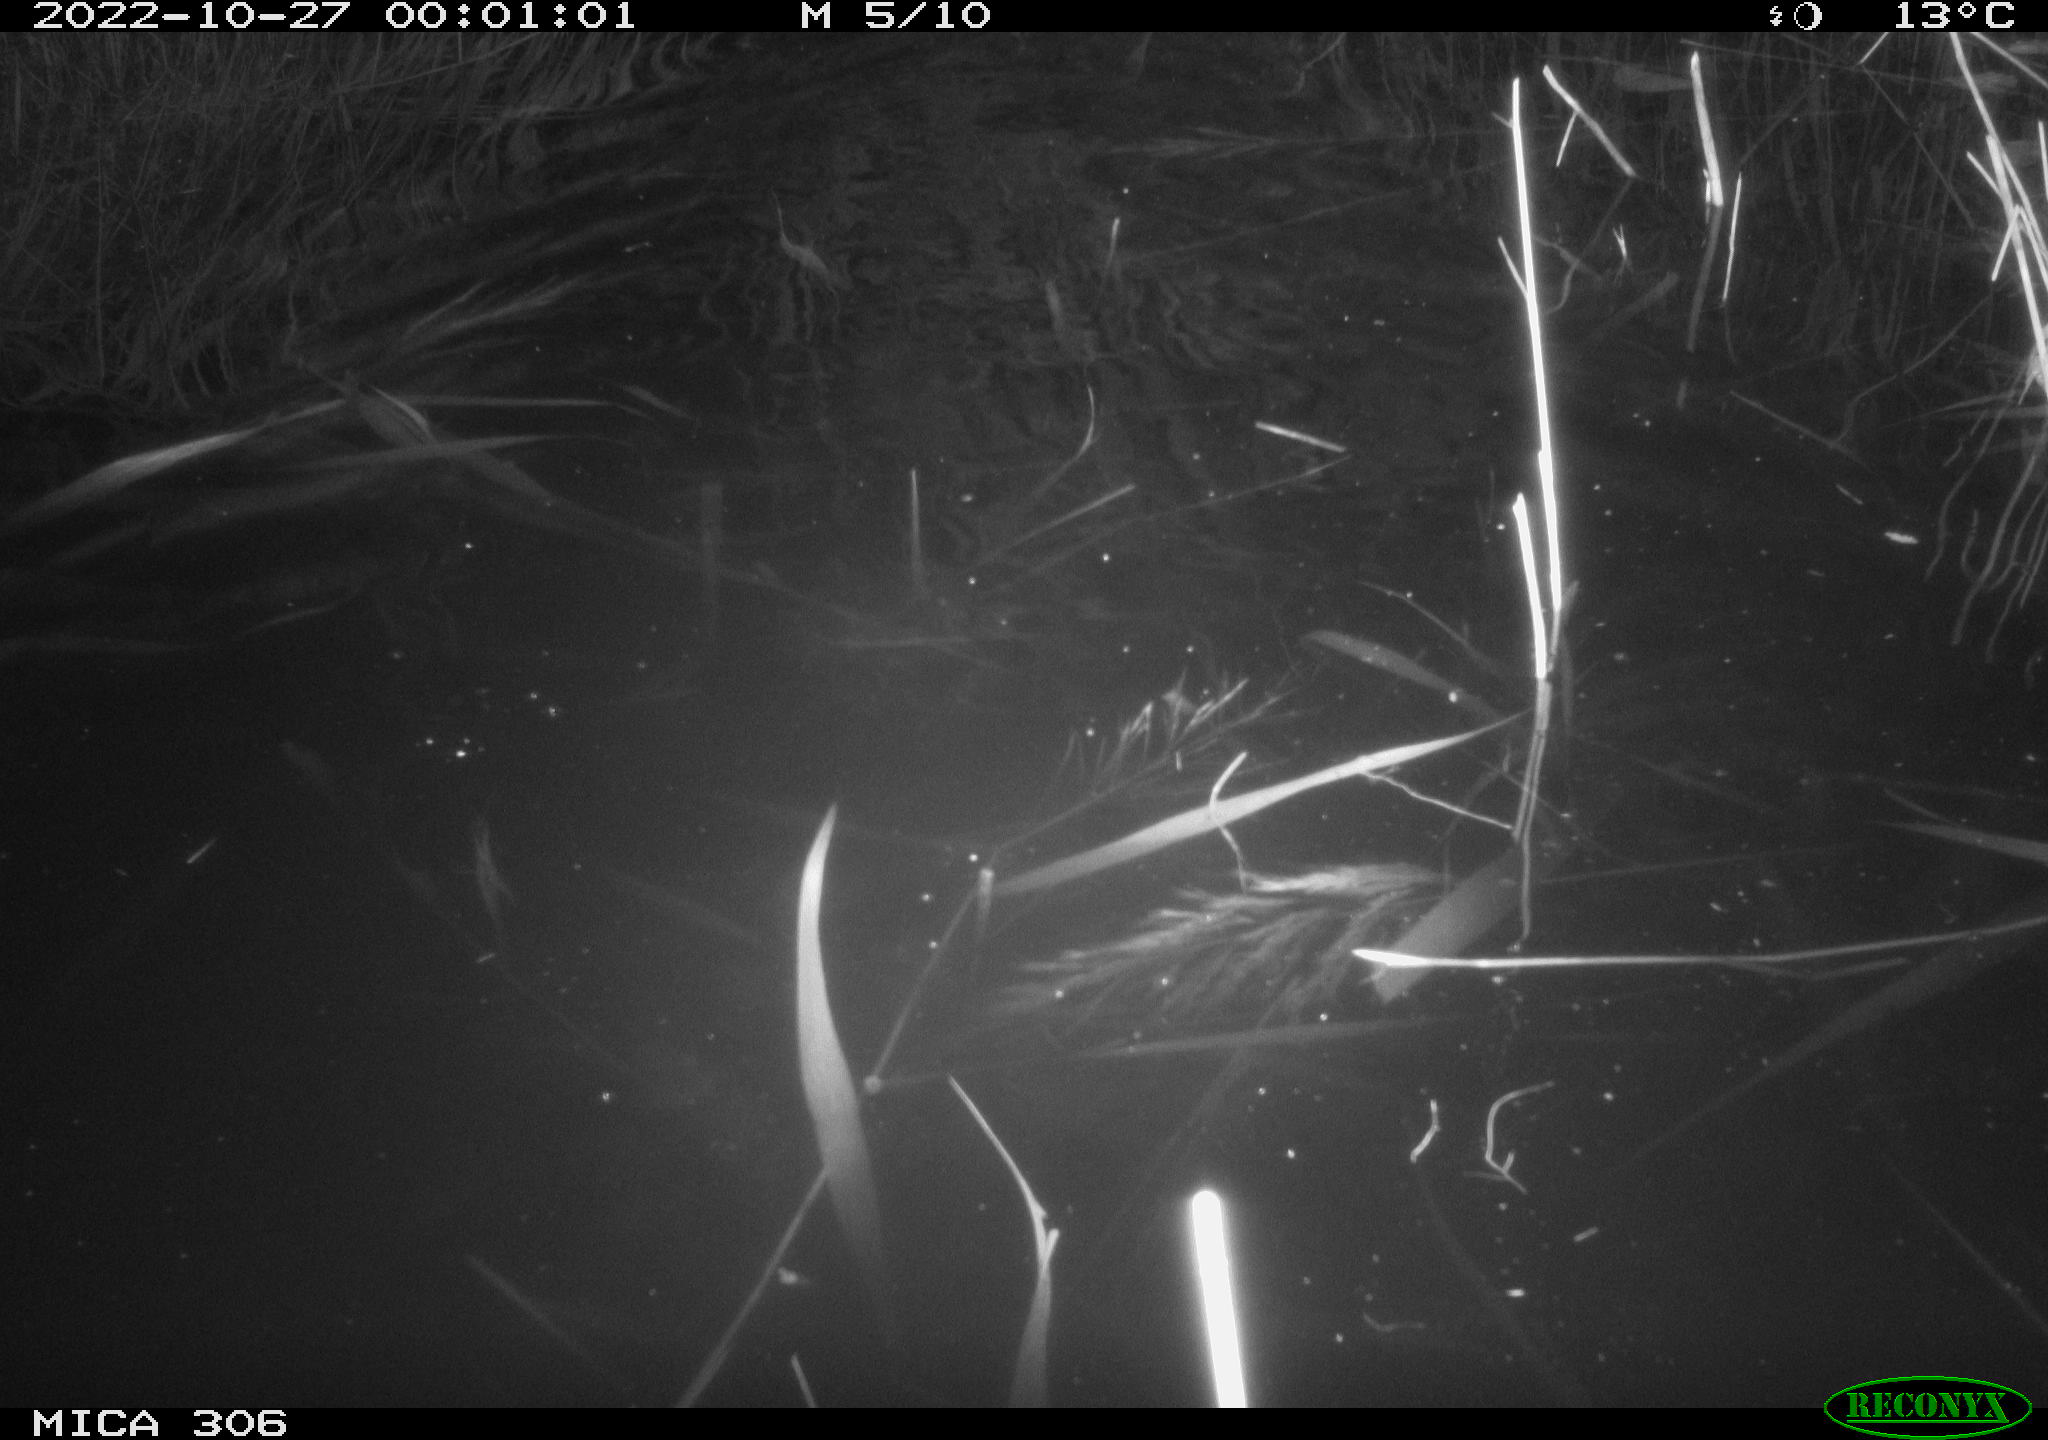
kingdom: Animalia
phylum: Chordata
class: Mammalia
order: Rodentia
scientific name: Rodentia
